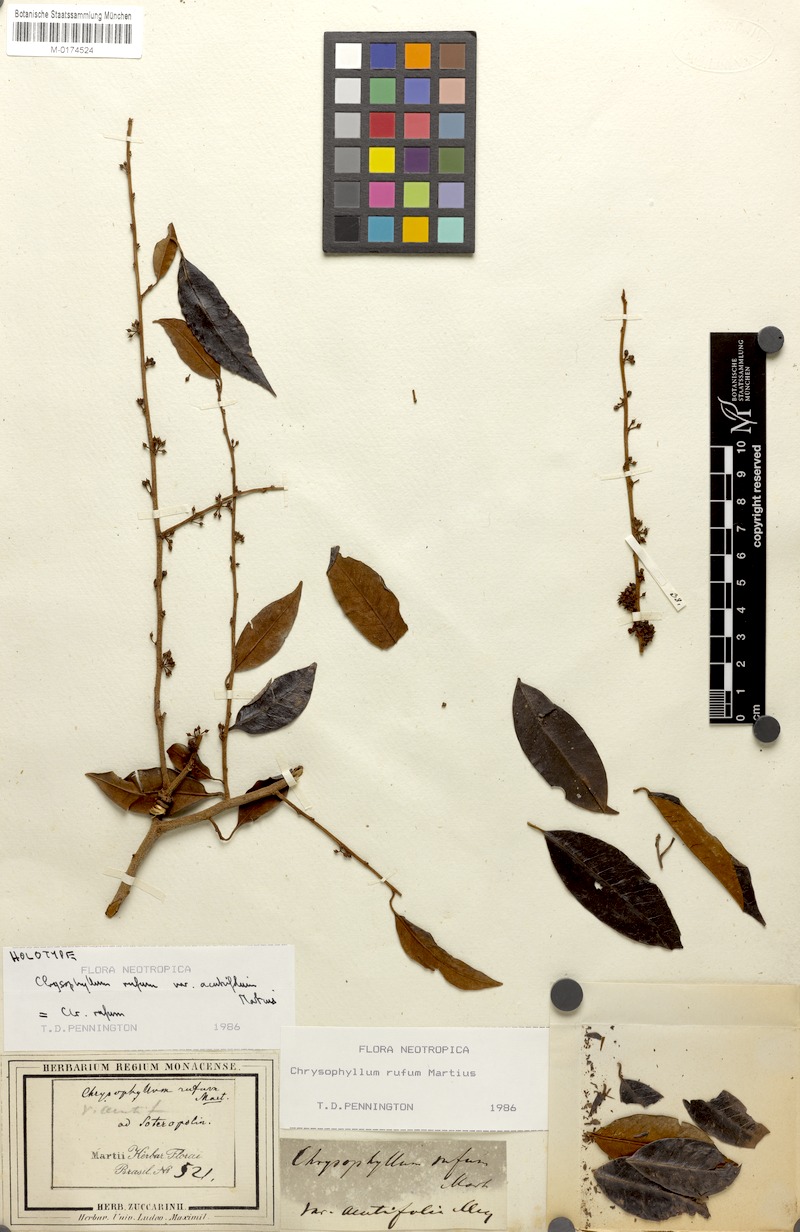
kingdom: Plantae
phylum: Tracheophyta
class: Magnoliopsida
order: Ericales
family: Sapotaceae
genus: Chrysophyllum
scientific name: Chrysophyllum rufum
